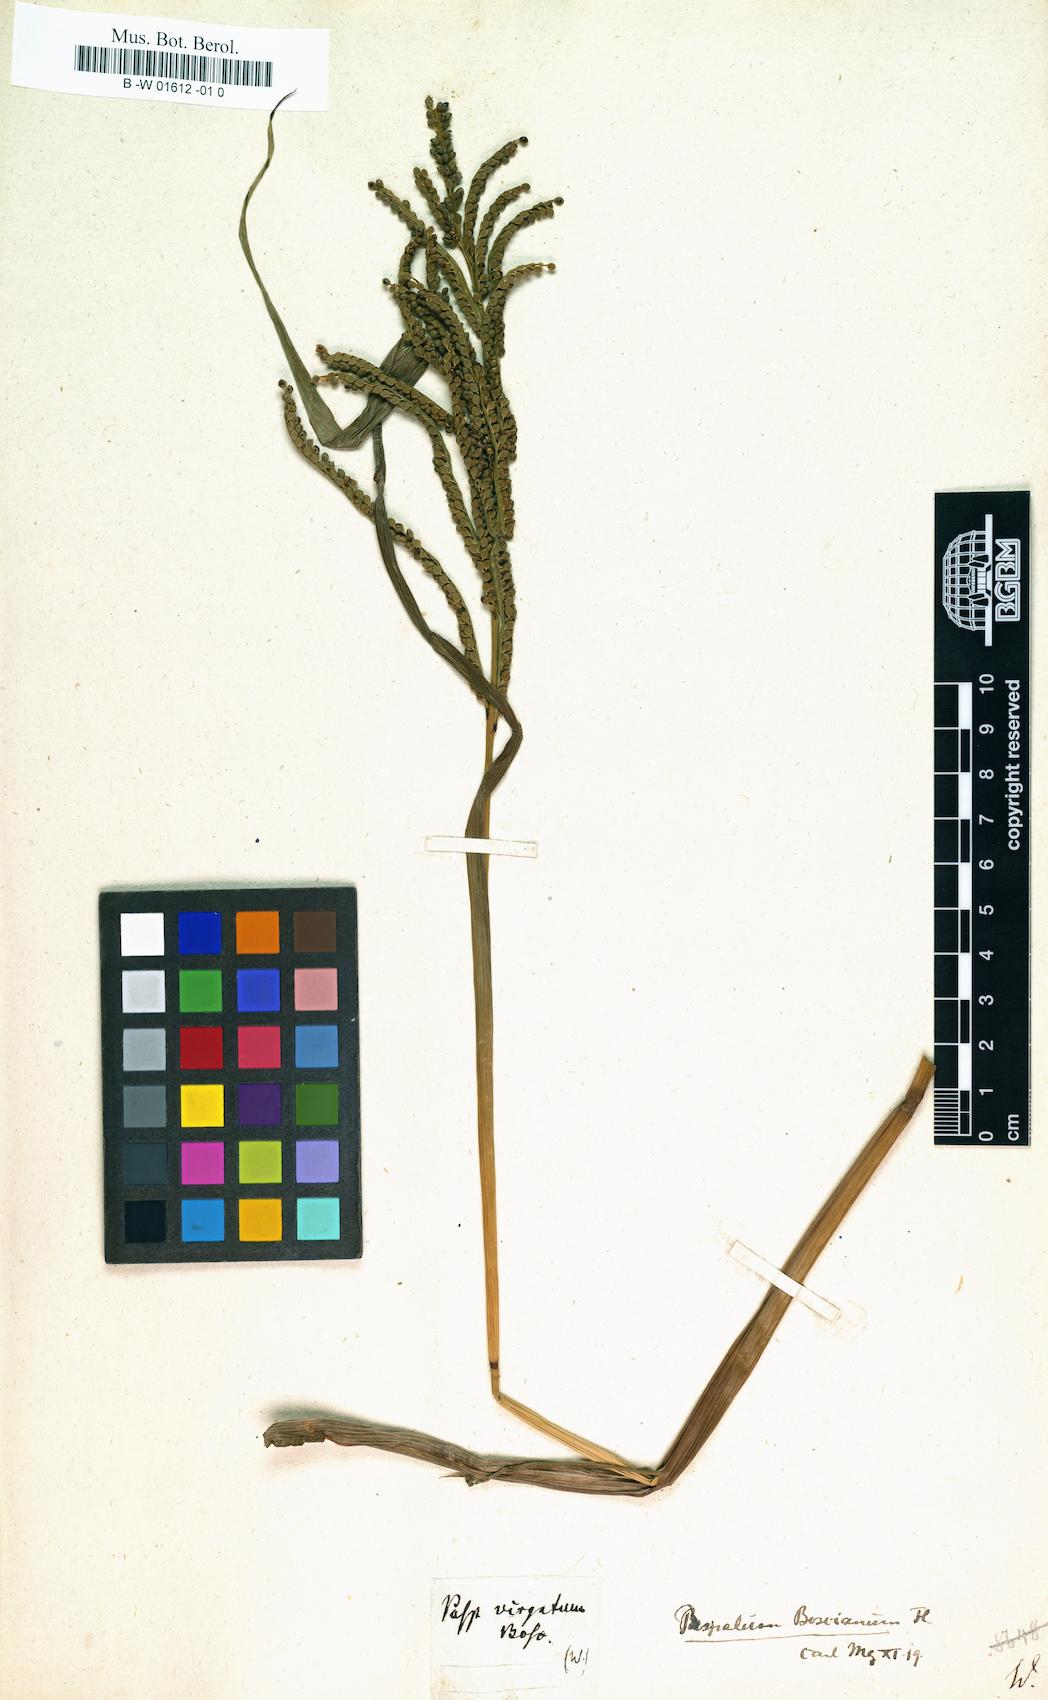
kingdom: Plantae
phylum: Tracheophyta
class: Liliopsida
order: Poales
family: Poaceae
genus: Paspalus
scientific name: Paspalus
